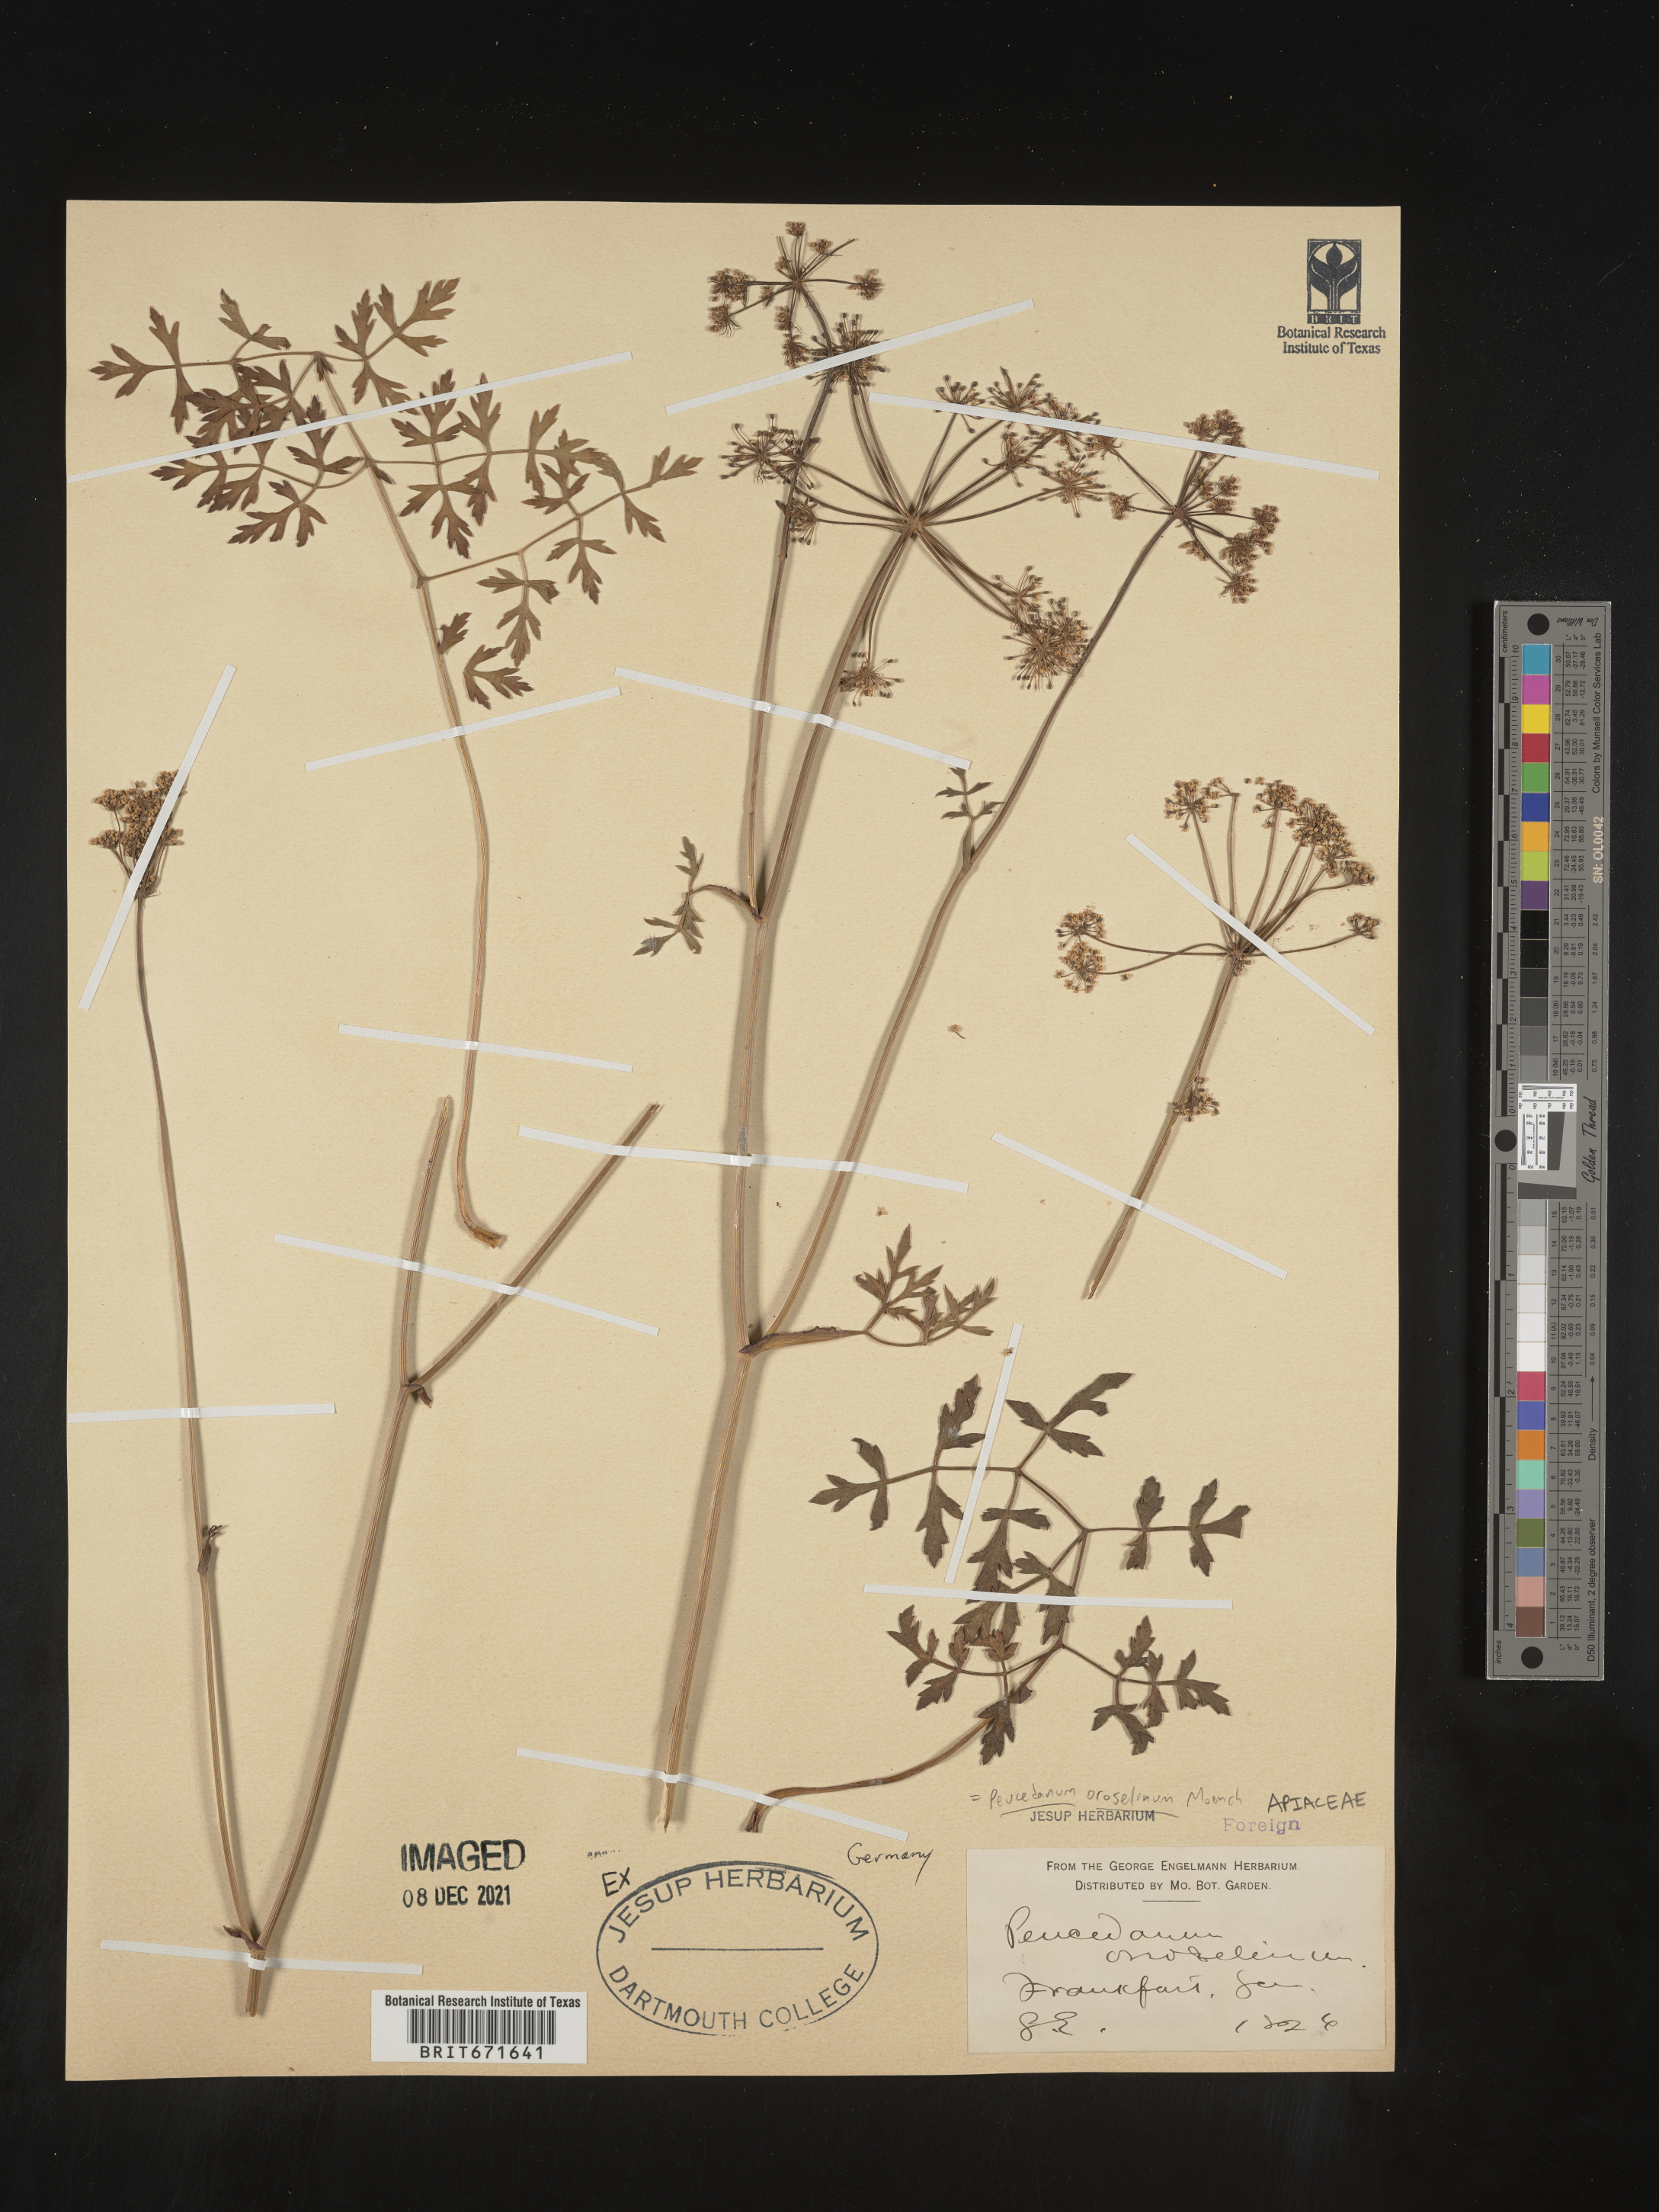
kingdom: Plantae
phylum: Tracheophyta
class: Magnoliopsida
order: Apiales
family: Apiaceae
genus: Peucedanum
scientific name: Peucedanum
